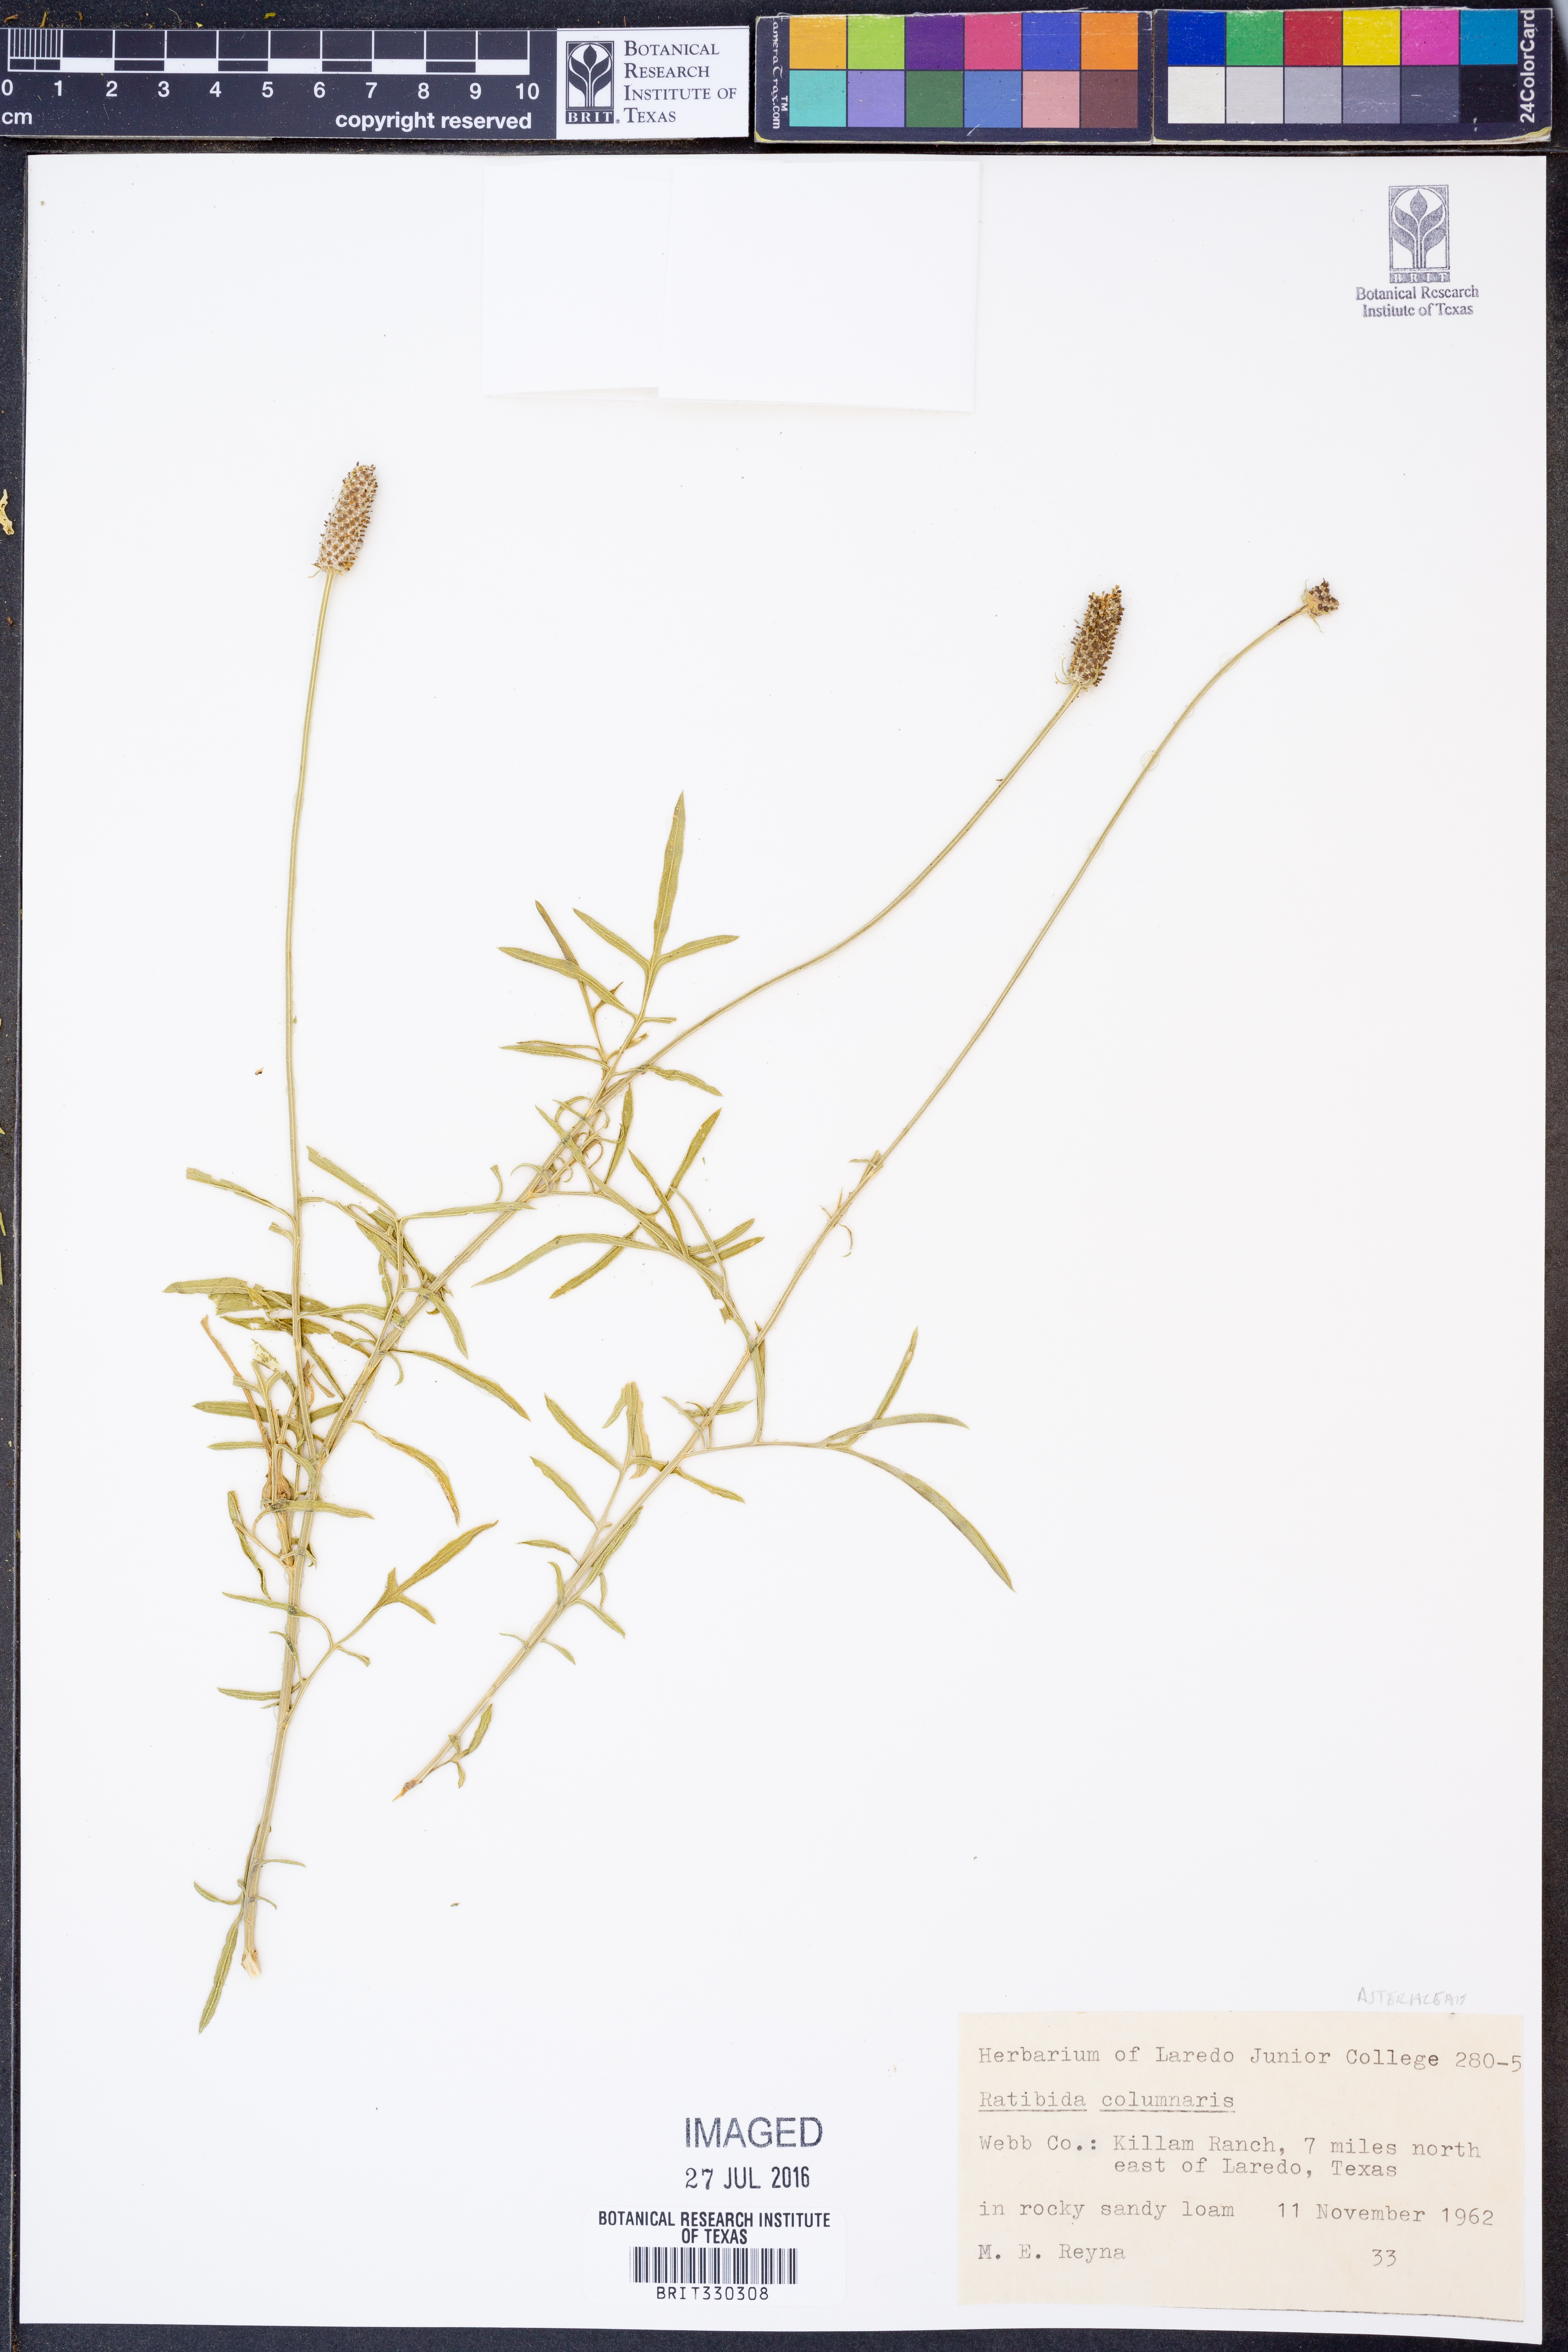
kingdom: Plantae
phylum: Tracheophyta
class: Magnoliopsida
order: Asterales
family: Asteraceae
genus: Ratibida
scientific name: Ratibida columnifera
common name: Prairie coneflower
